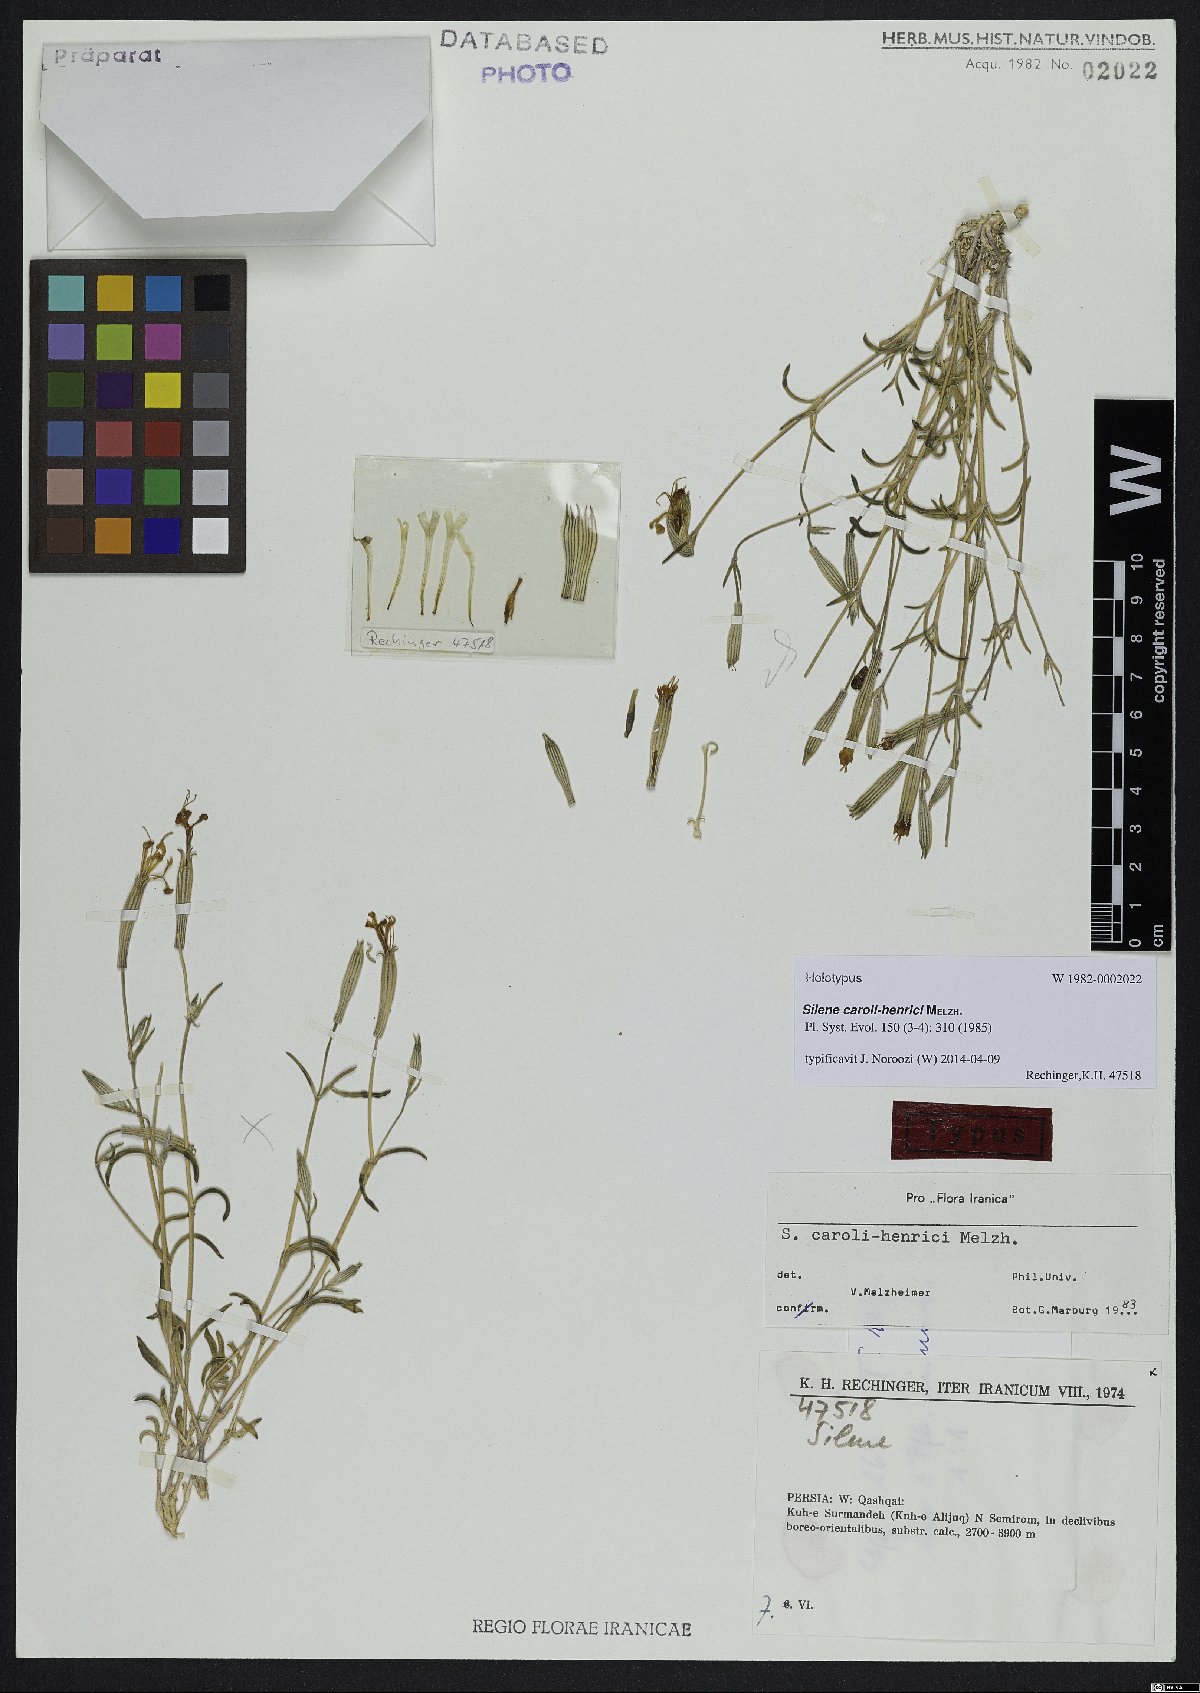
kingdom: Plantae
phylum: Tracheophyta
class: Magnoliopsida
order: Caryophyllales
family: Caryophyllaceae
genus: Silene
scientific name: Silene caroli-henrici
